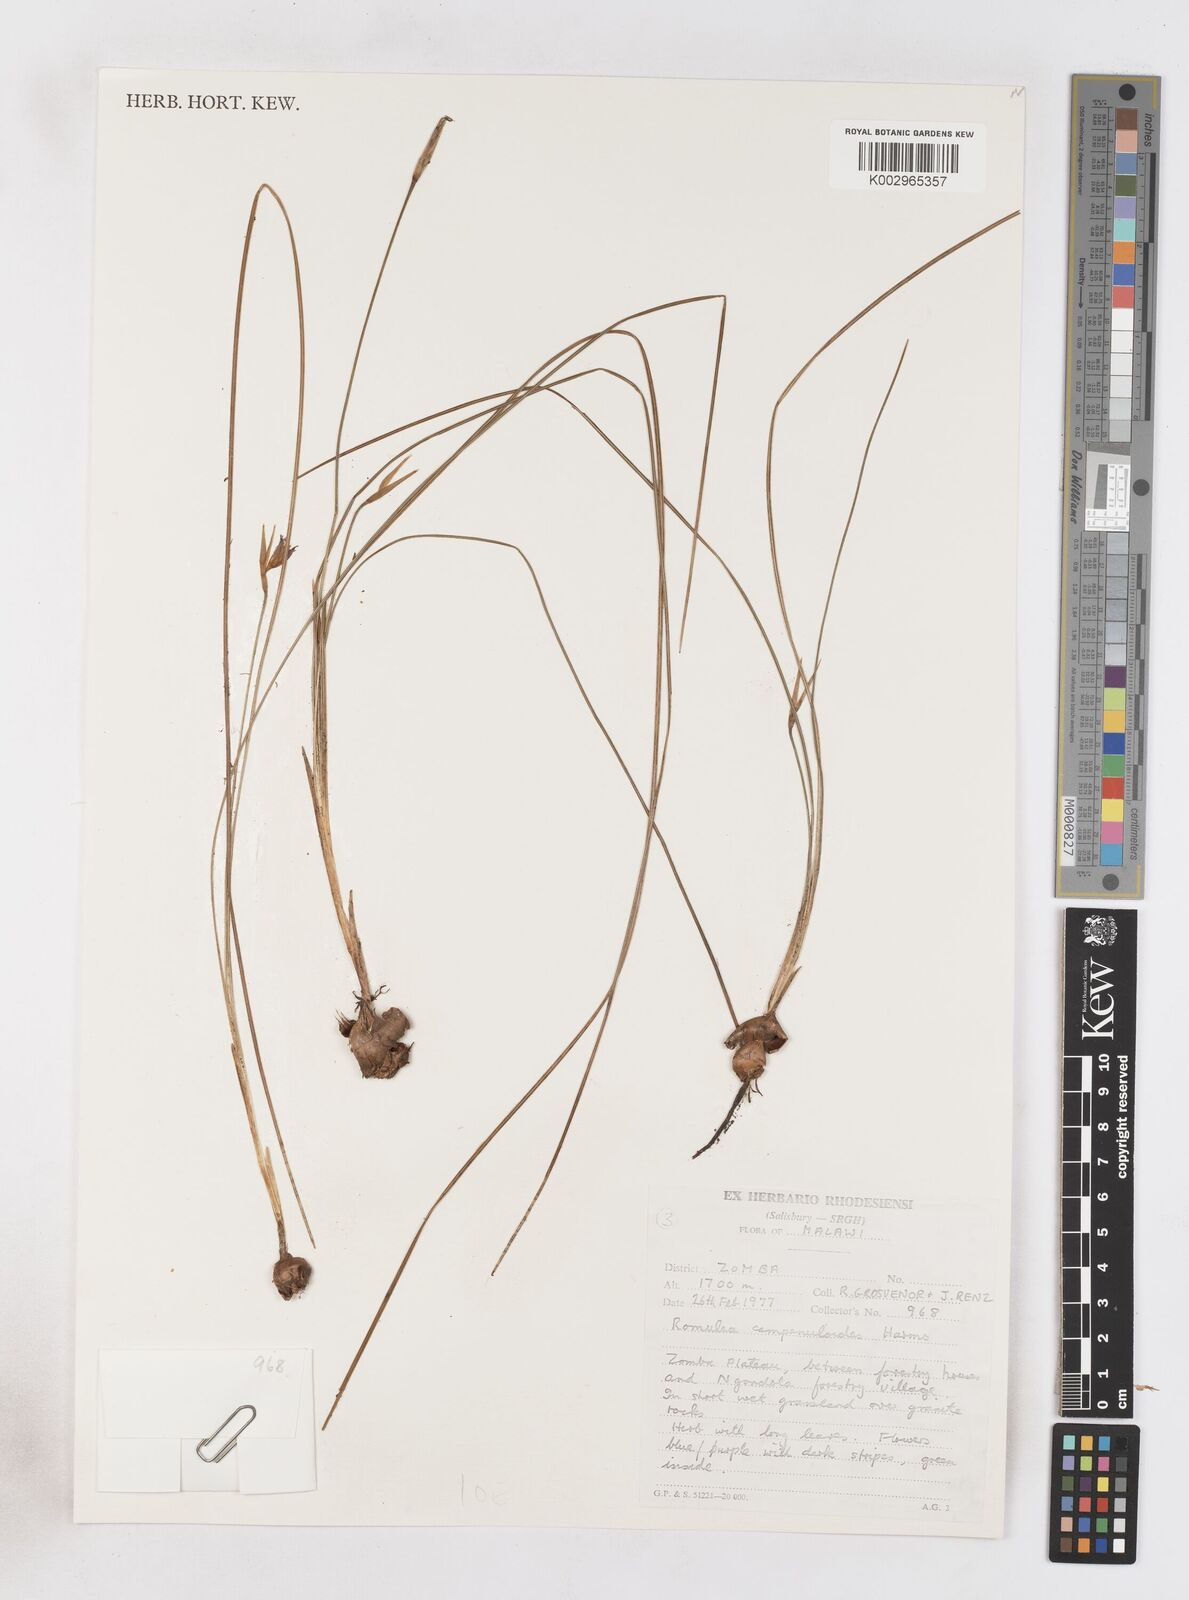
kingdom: Plantae
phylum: Tracheophyta
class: Liliopsida
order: Asparagales
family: Iridaceae
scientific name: Iridaceae
